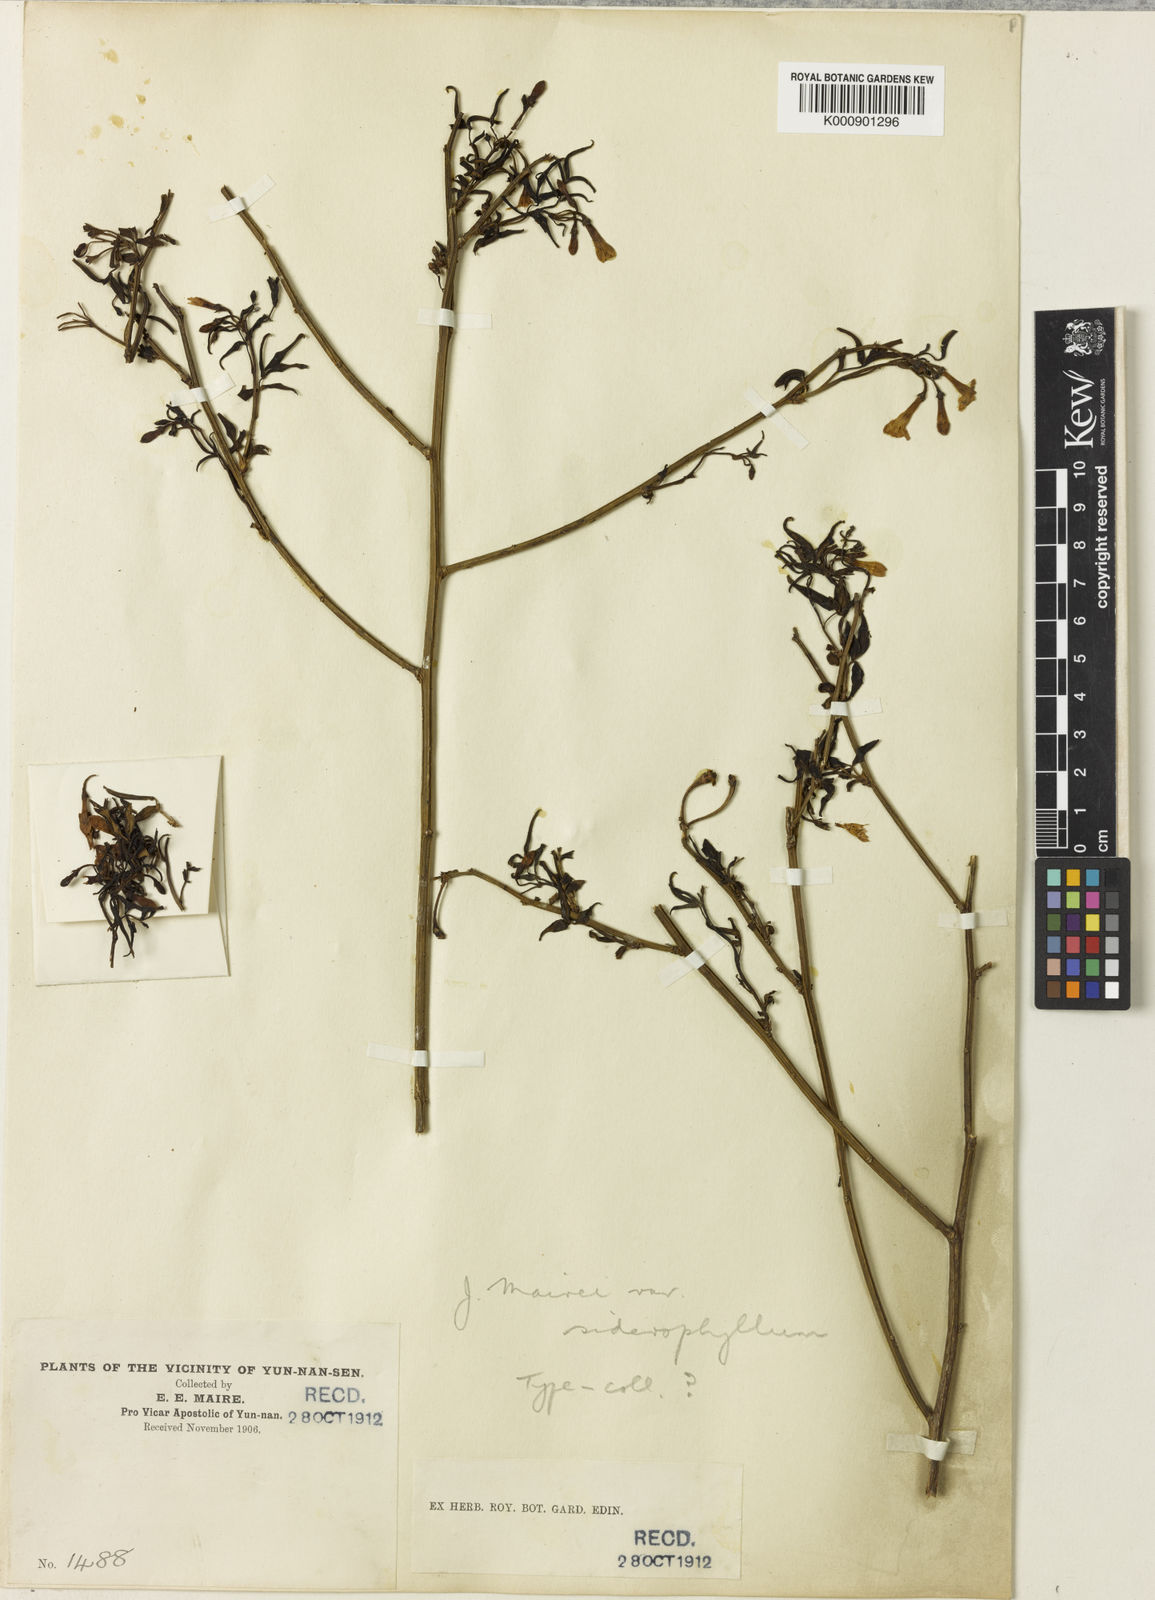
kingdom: Plantae
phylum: Tracheophyta
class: Magnoliopsida
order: Lamiales
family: Oleaceae
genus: Chrysojasminum
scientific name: Chrysojasminum humile
